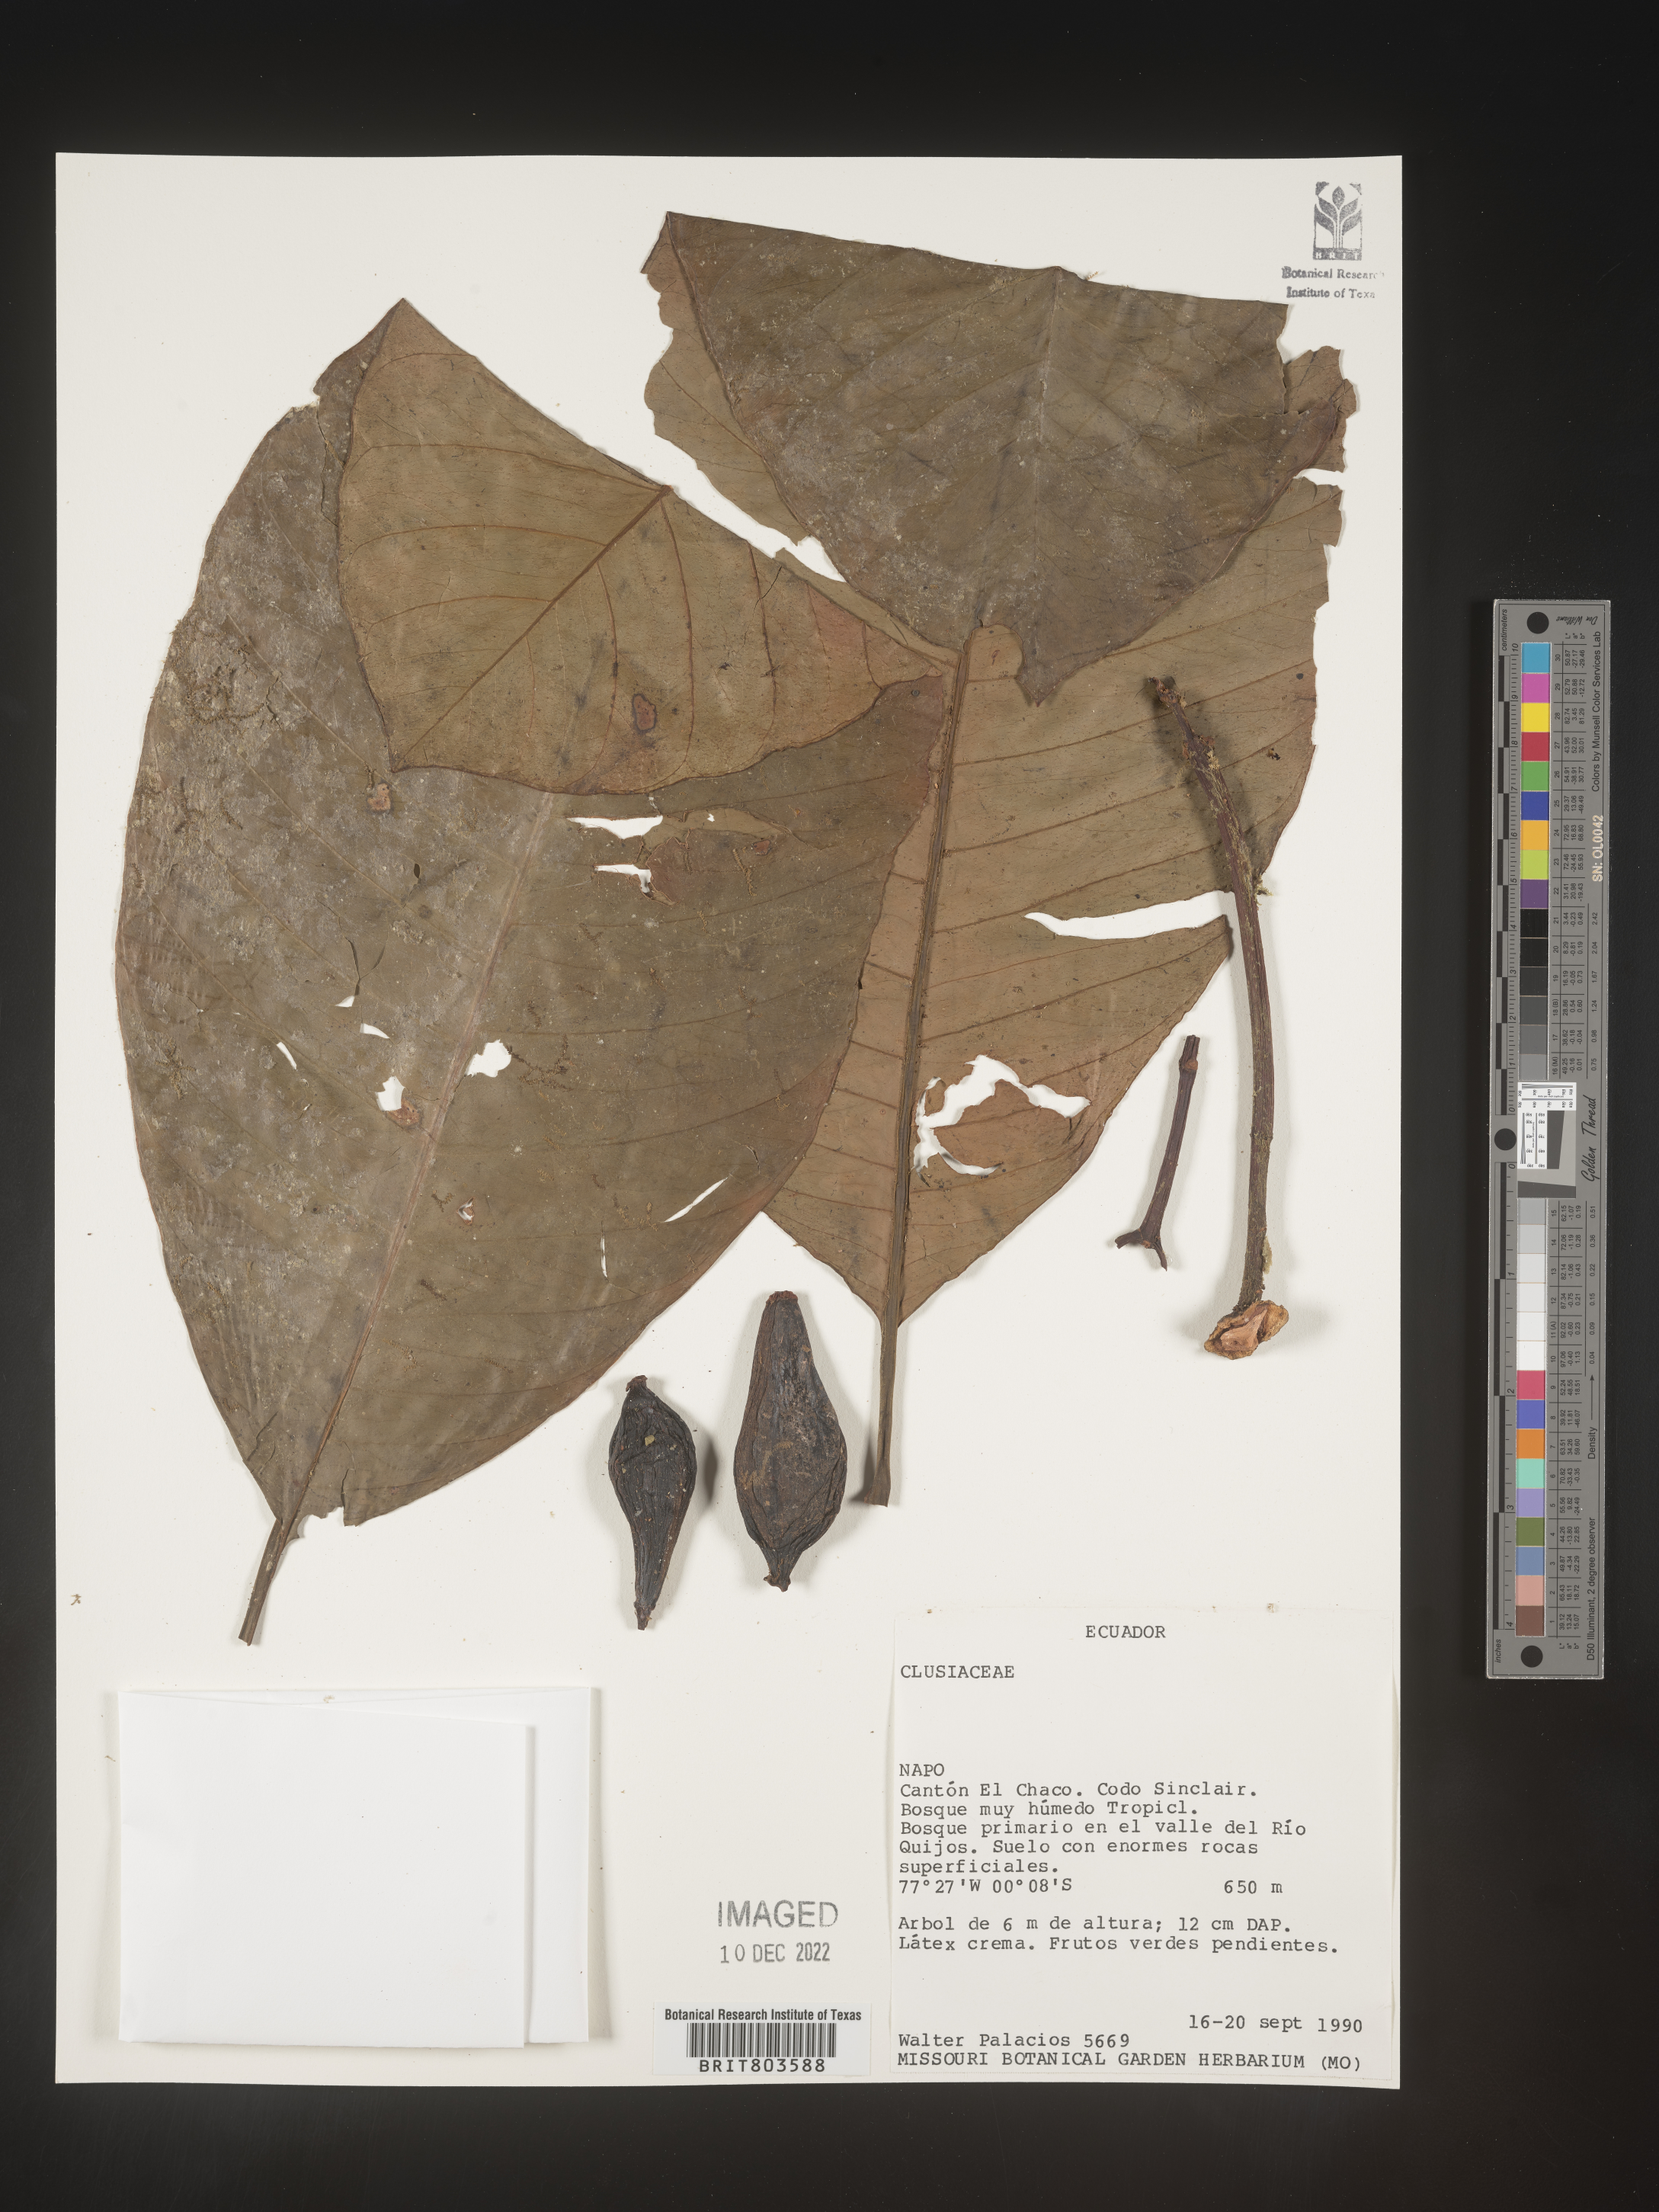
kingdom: Plantae
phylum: Tracheophyta
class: Magnoliopsida
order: Malpighiales
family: Clusiaceae
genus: Tovomita
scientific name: Tovomita
